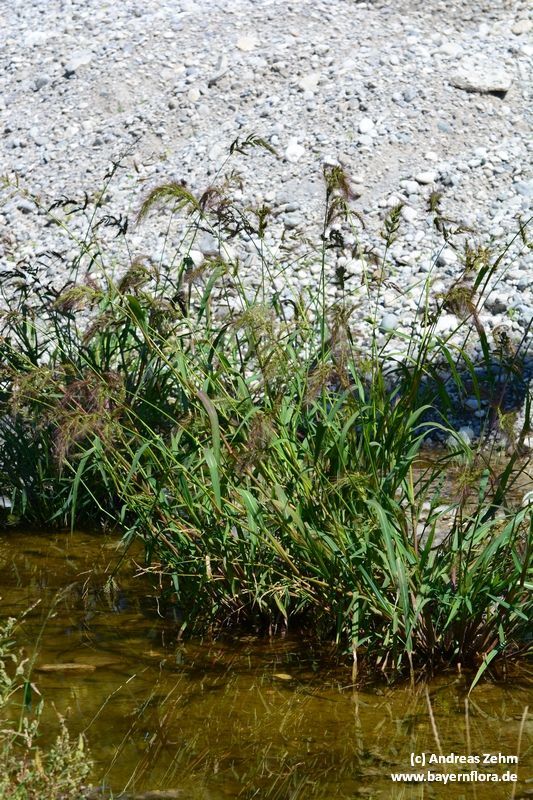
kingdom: Plantae
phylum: Tracheophyta
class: Liliopsida
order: Poales
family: Poaceae
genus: Echinochloa
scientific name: Echinochloa crus-galli
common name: Cockspur
